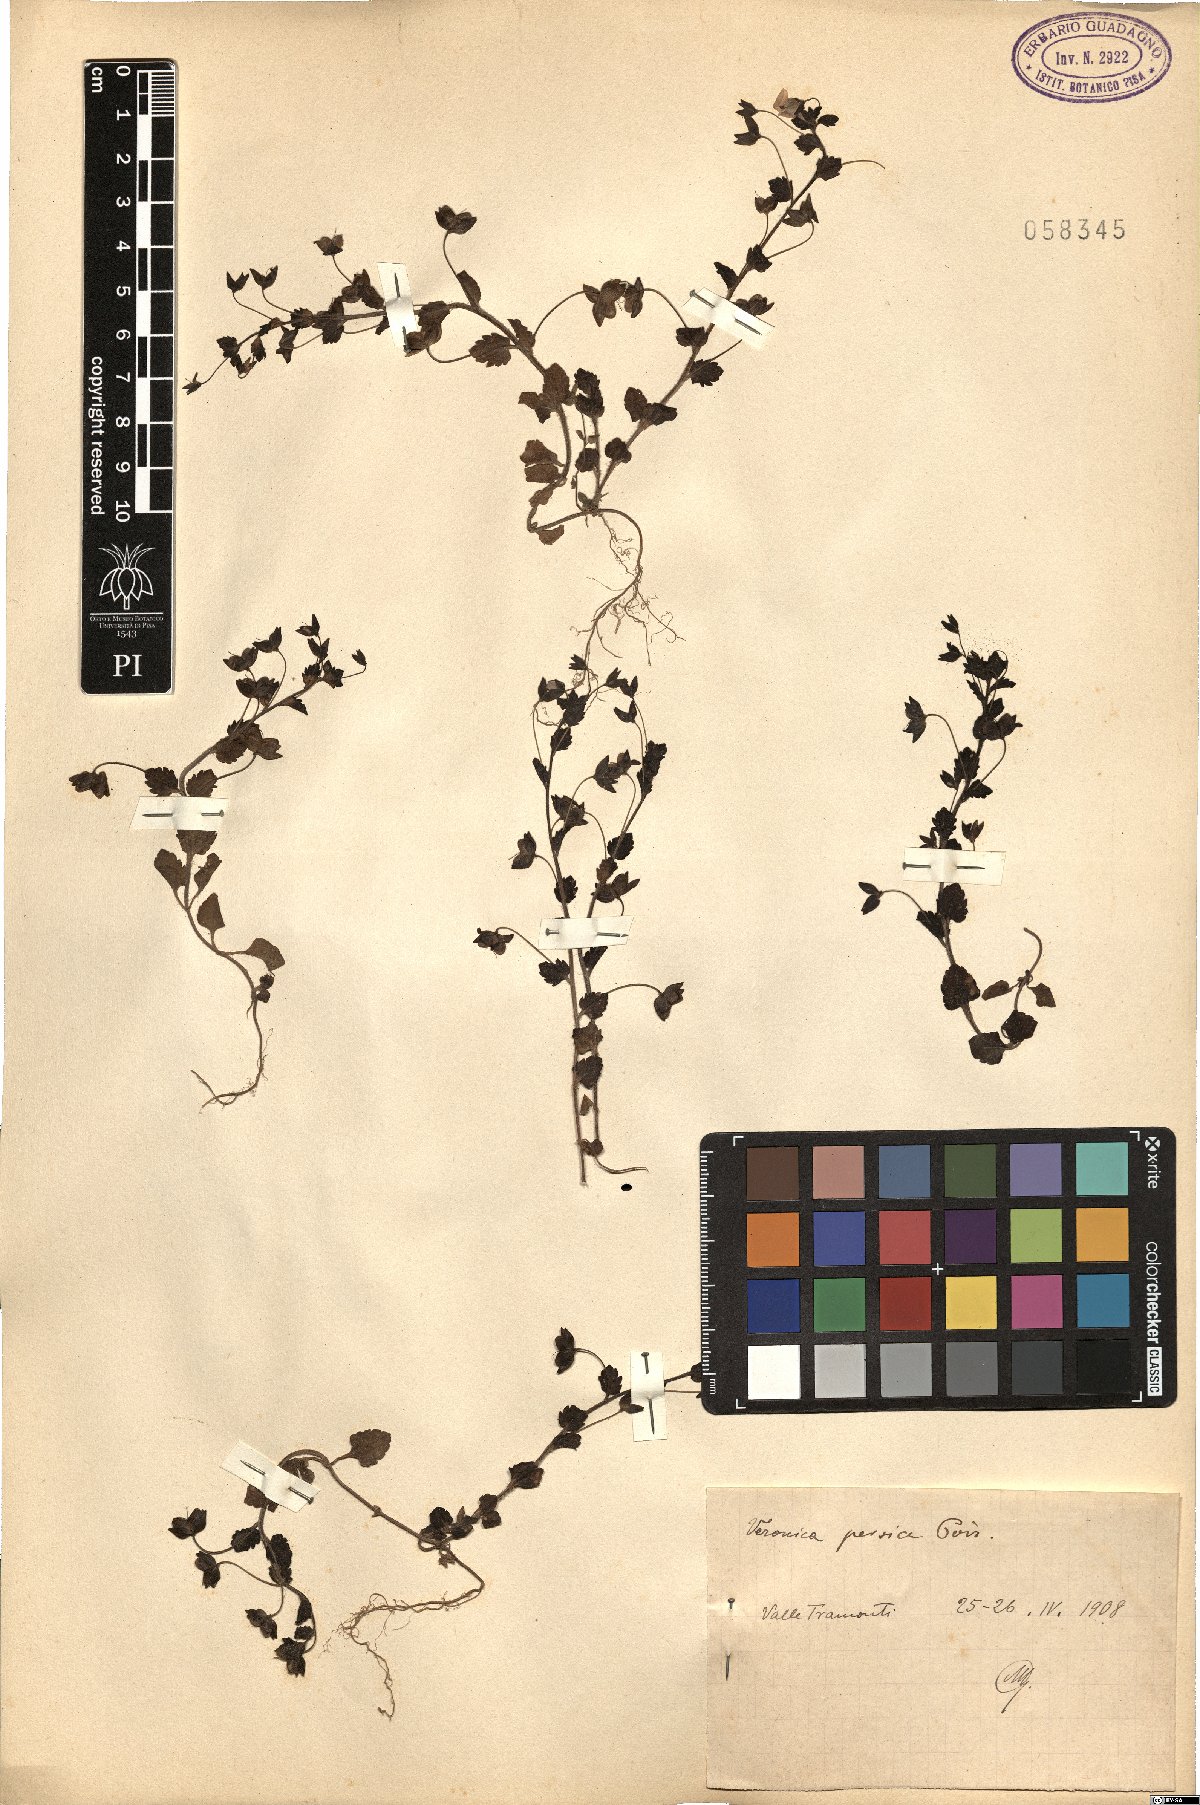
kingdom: Plantae
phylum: Tracheophyta
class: Magnoliopsida
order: Lamiales
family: Plantaginaceae
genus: Veronica
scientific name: Veronica persica
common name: Common field-speedwell
